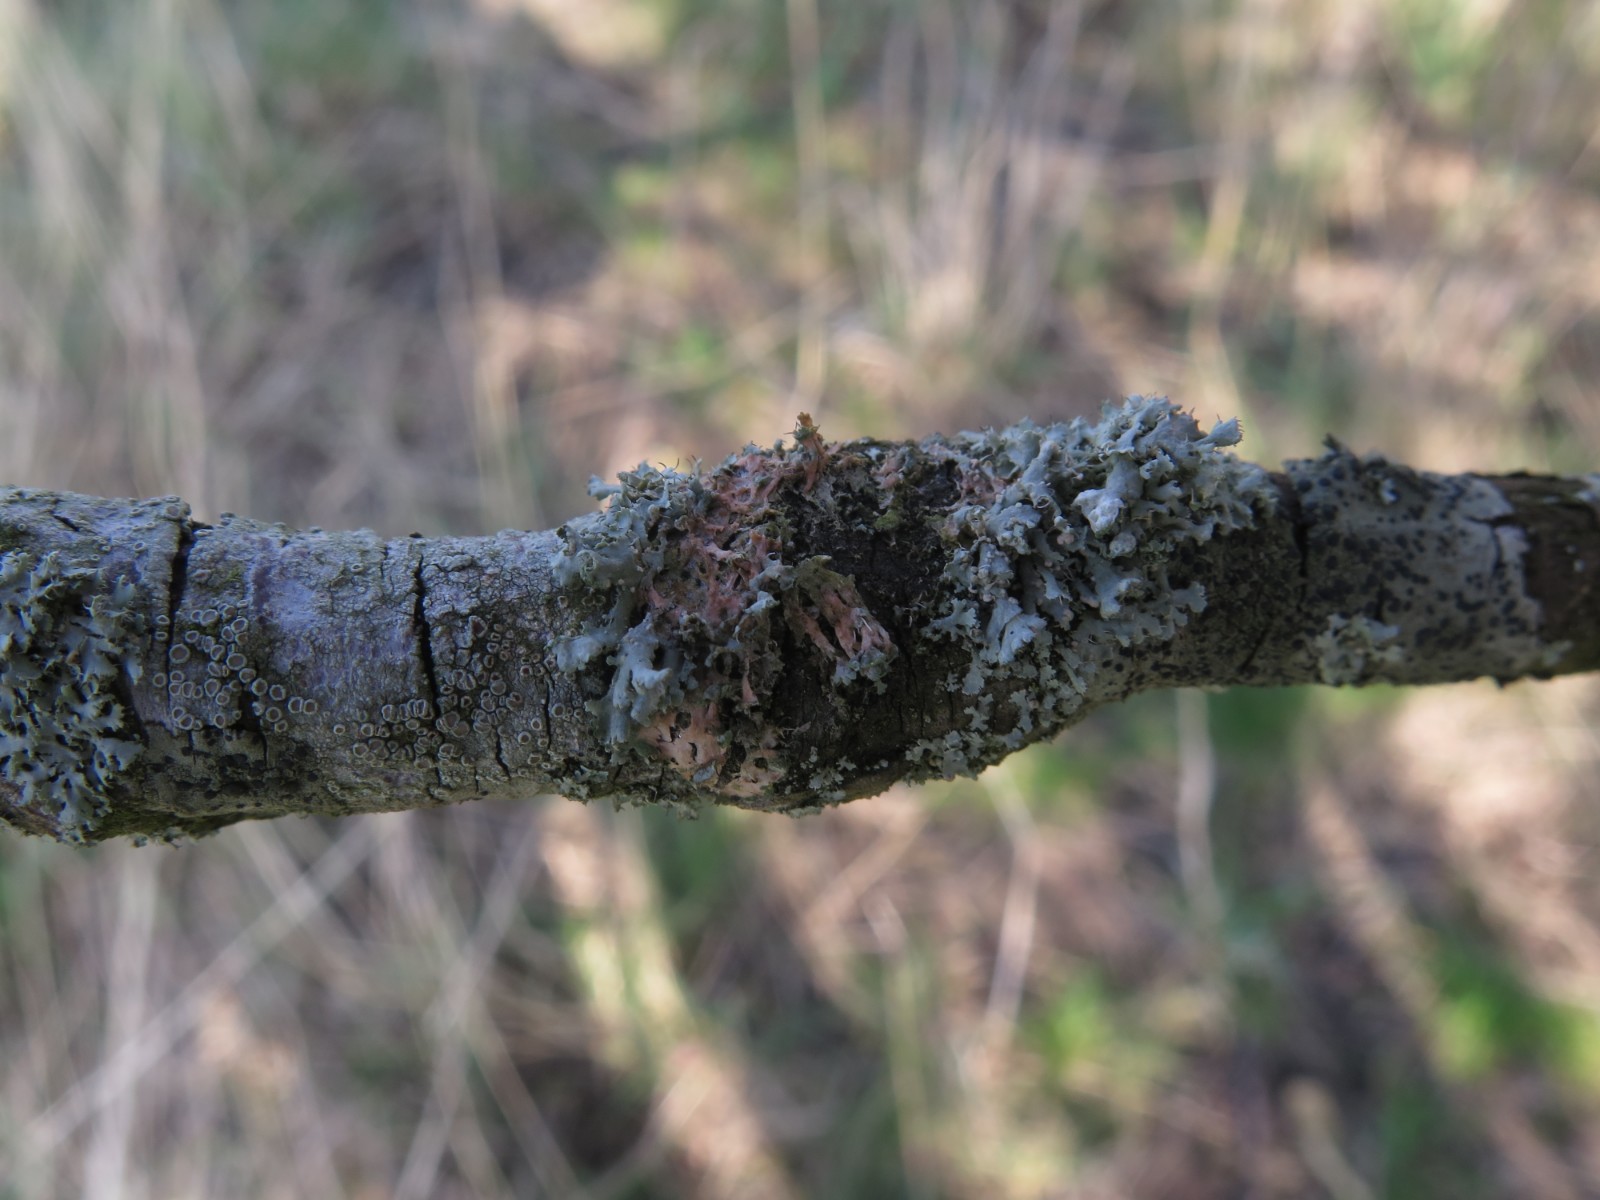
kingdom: Fungi
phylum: Basidiomycota
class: Agaricomycetes
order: Corticiales
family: Corticiaceae
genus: Erythricium
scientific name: Erythricium aurantiacum
